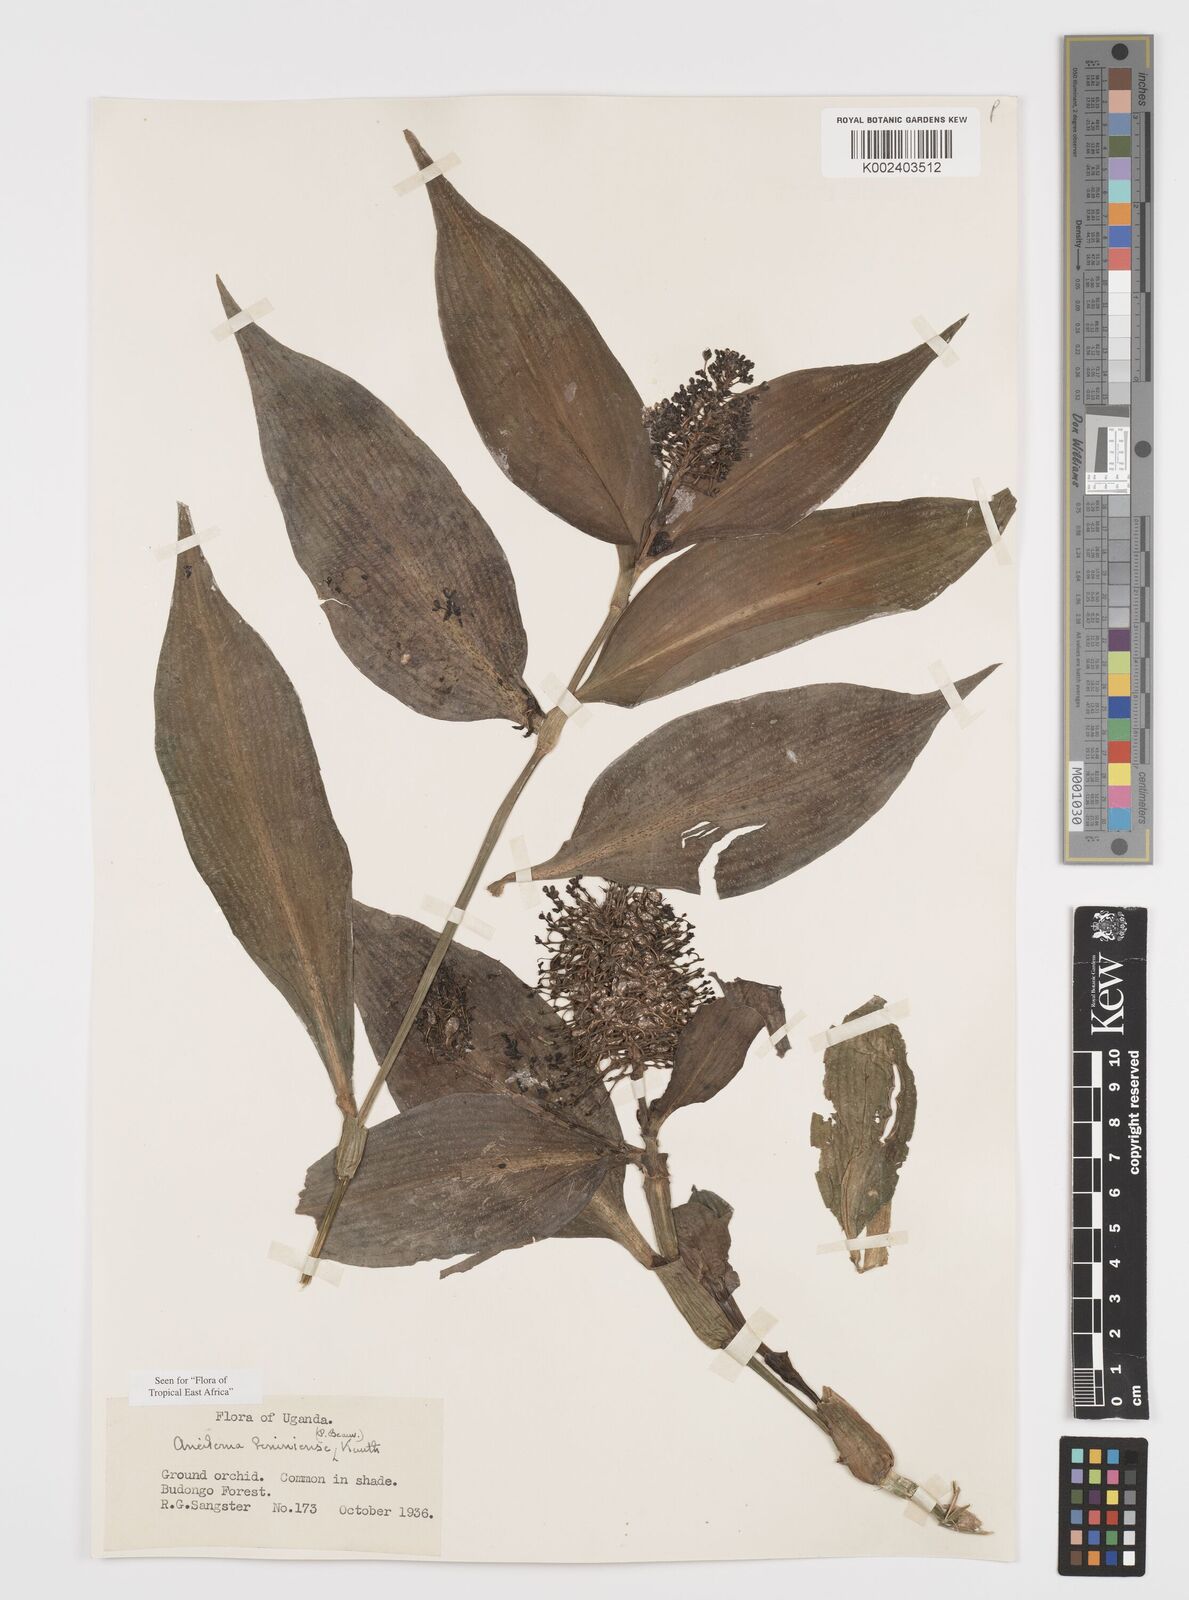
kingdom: Plantae
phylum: Tracheophyta
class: Liliopsida
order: Commelinales
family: Commelinaceae
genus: Aneilema
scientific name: Aneilema beniniense
